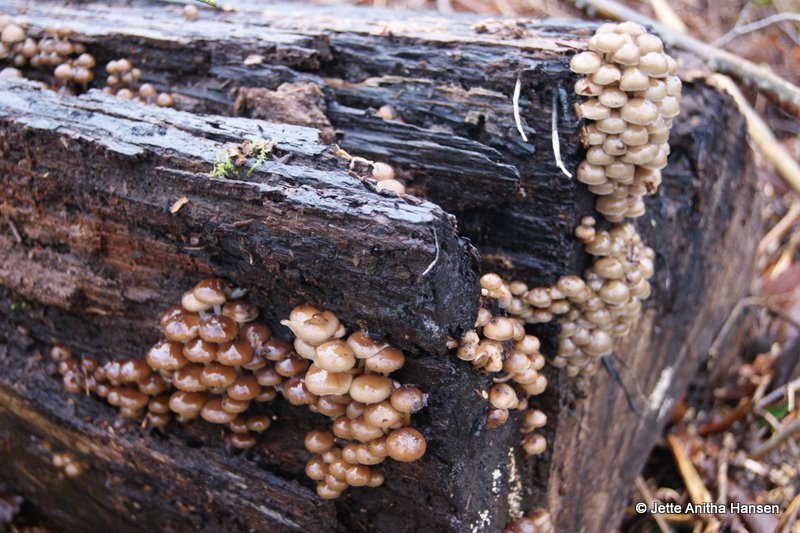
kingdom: Fungi
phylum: Basidiomycota
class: Agaricomycetes
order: Agaricales
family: Mycenaceae
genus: Mycena
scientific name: Mycena tintinnabulum
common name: vinter-huesvamp
